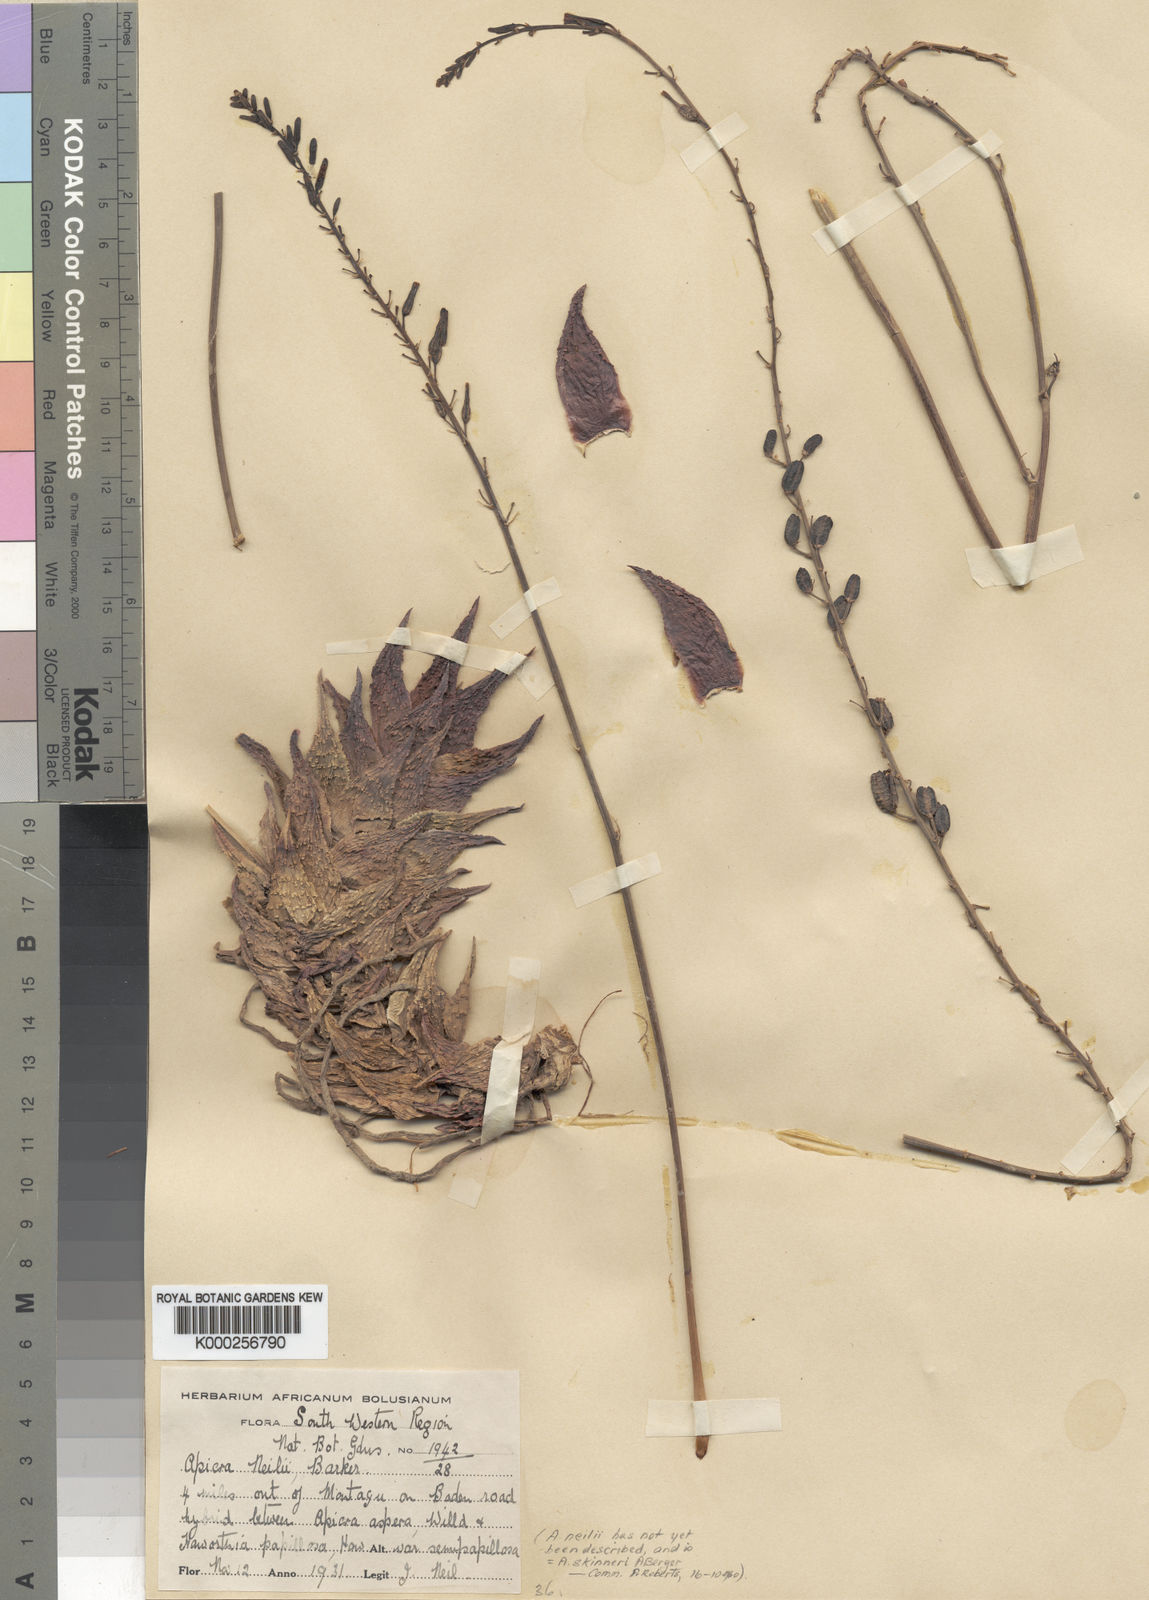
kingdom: Plantae
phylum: Tracheophyta
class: Liliopsida
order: Asparagales
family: Asphodelaceae
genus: Astrolista
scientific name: Astrolista bicarinata
